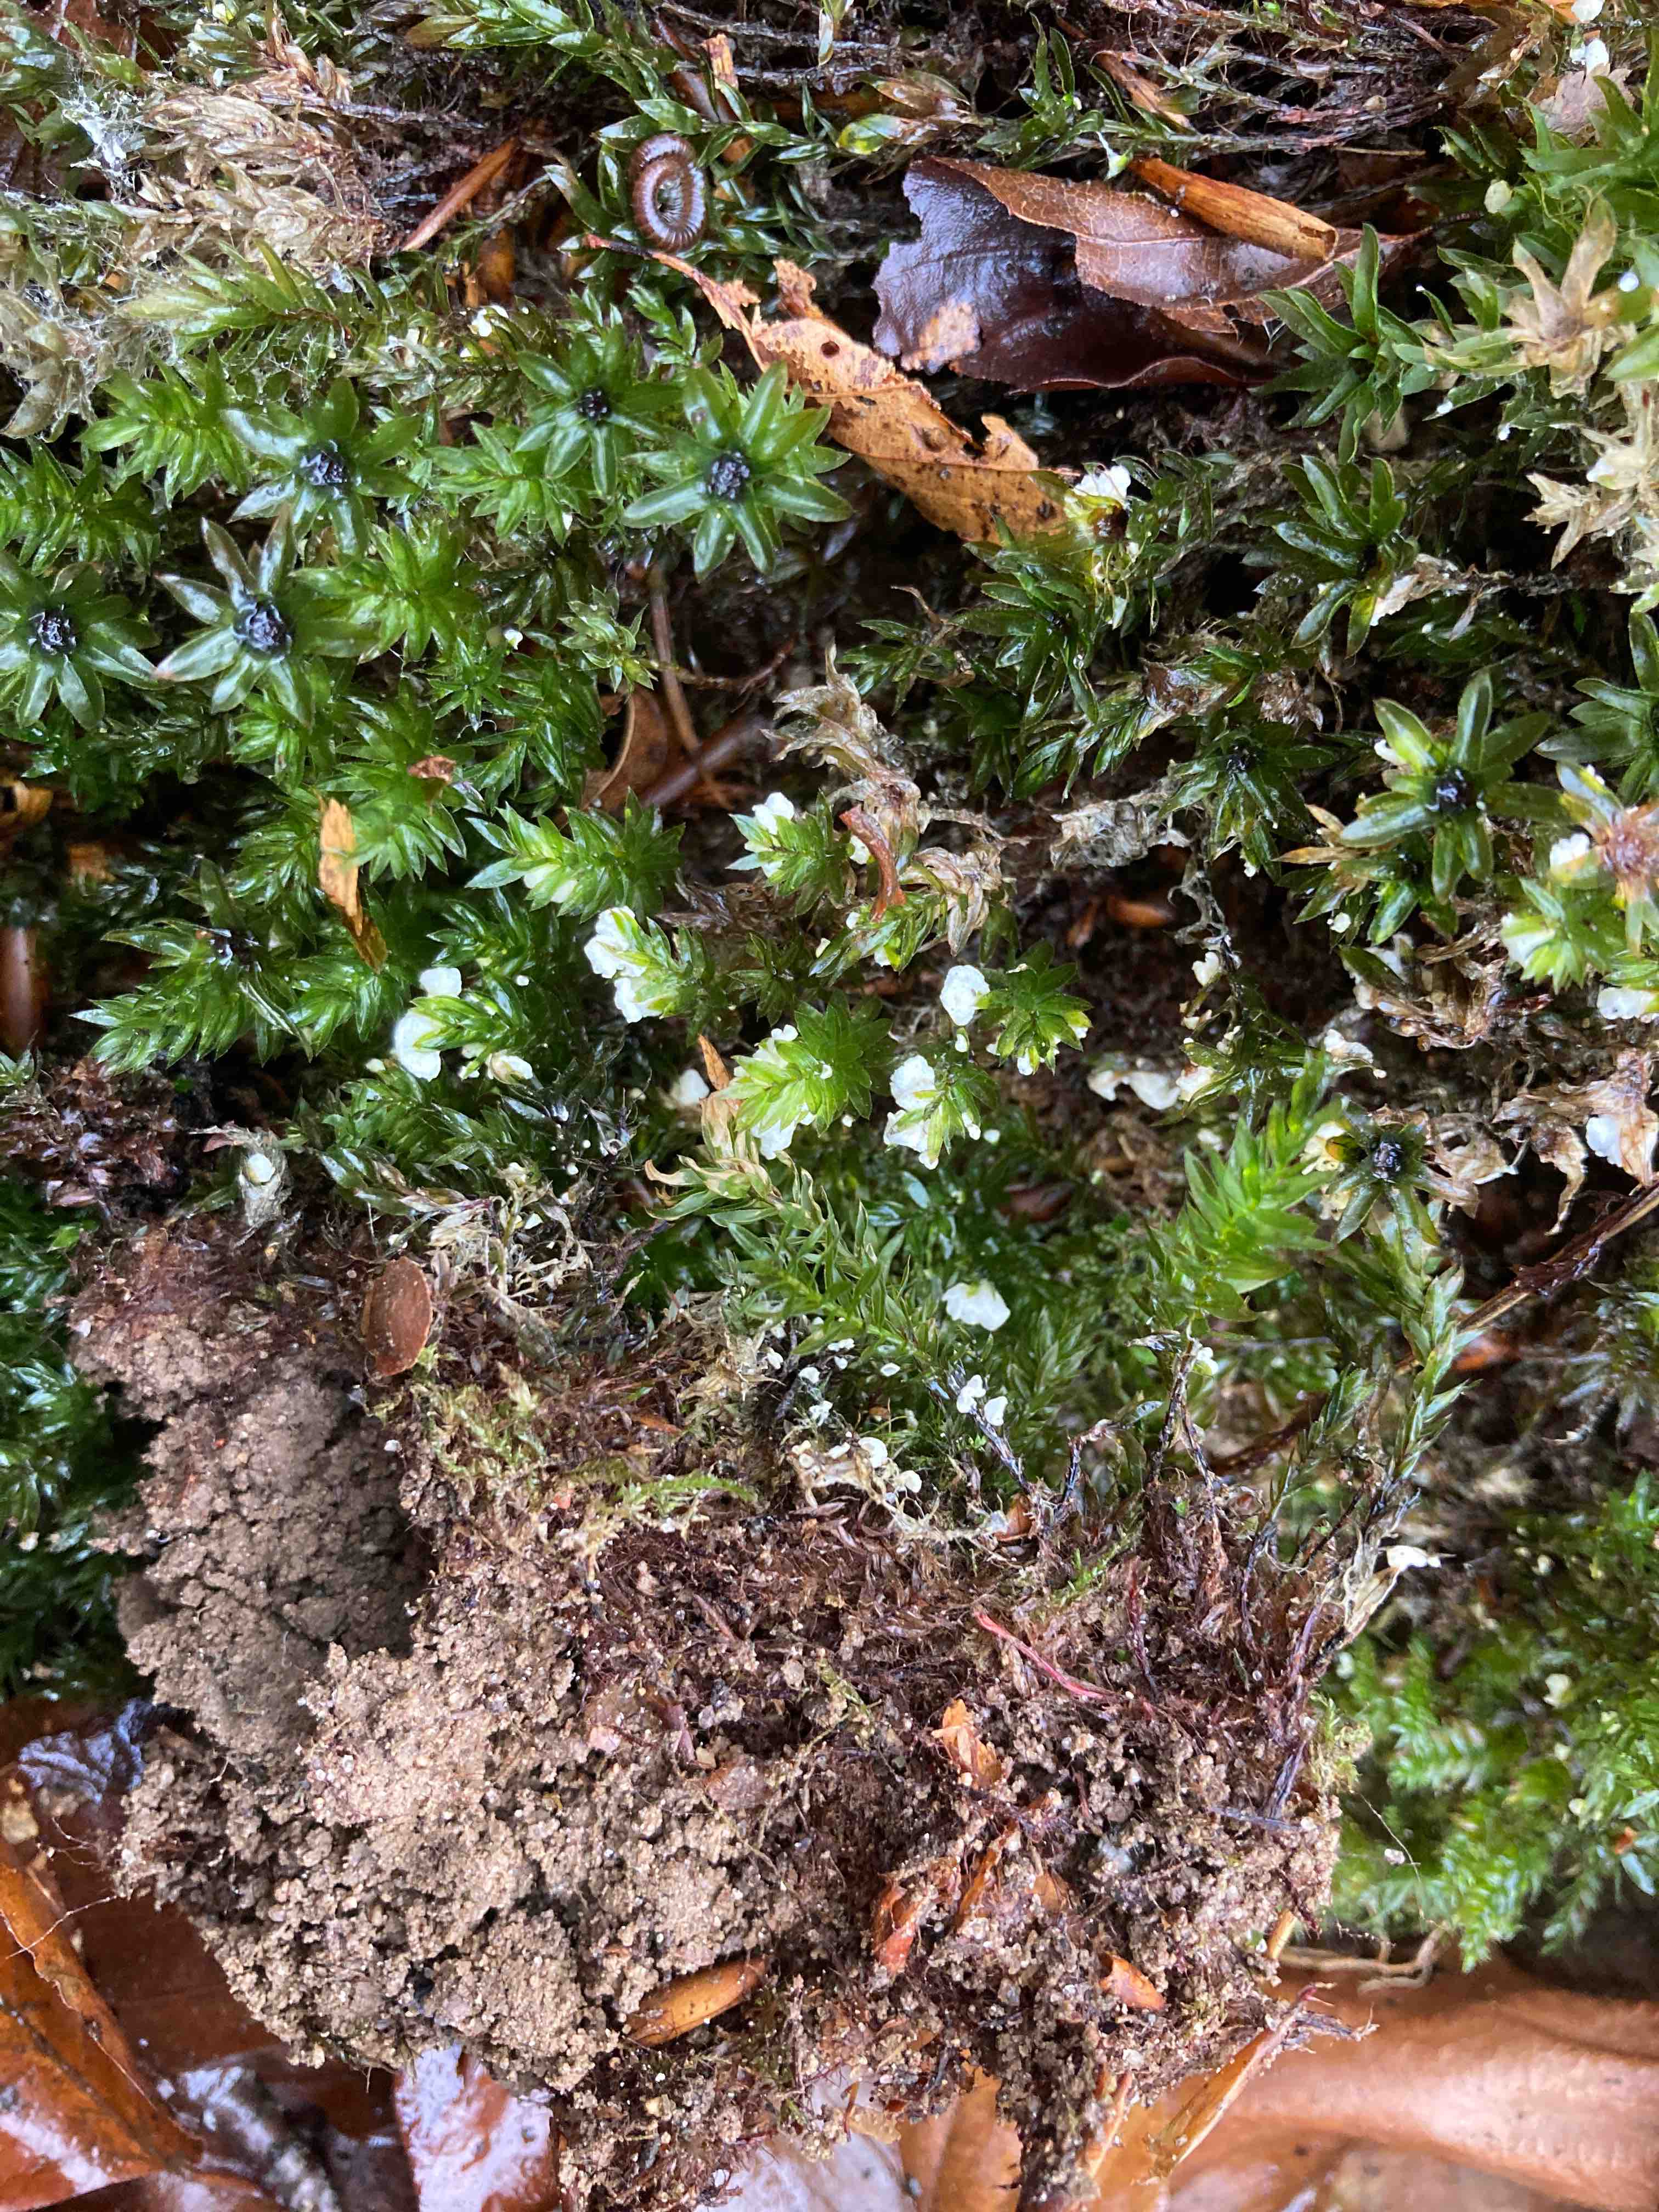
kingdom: Fungi
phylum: Basidiomycota
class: Agaricomycetes
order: Agaricales
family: Tricholomataceae
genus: Rimbachia
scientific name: Rimbachia arachnoidea
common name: Almindelig mosskål
